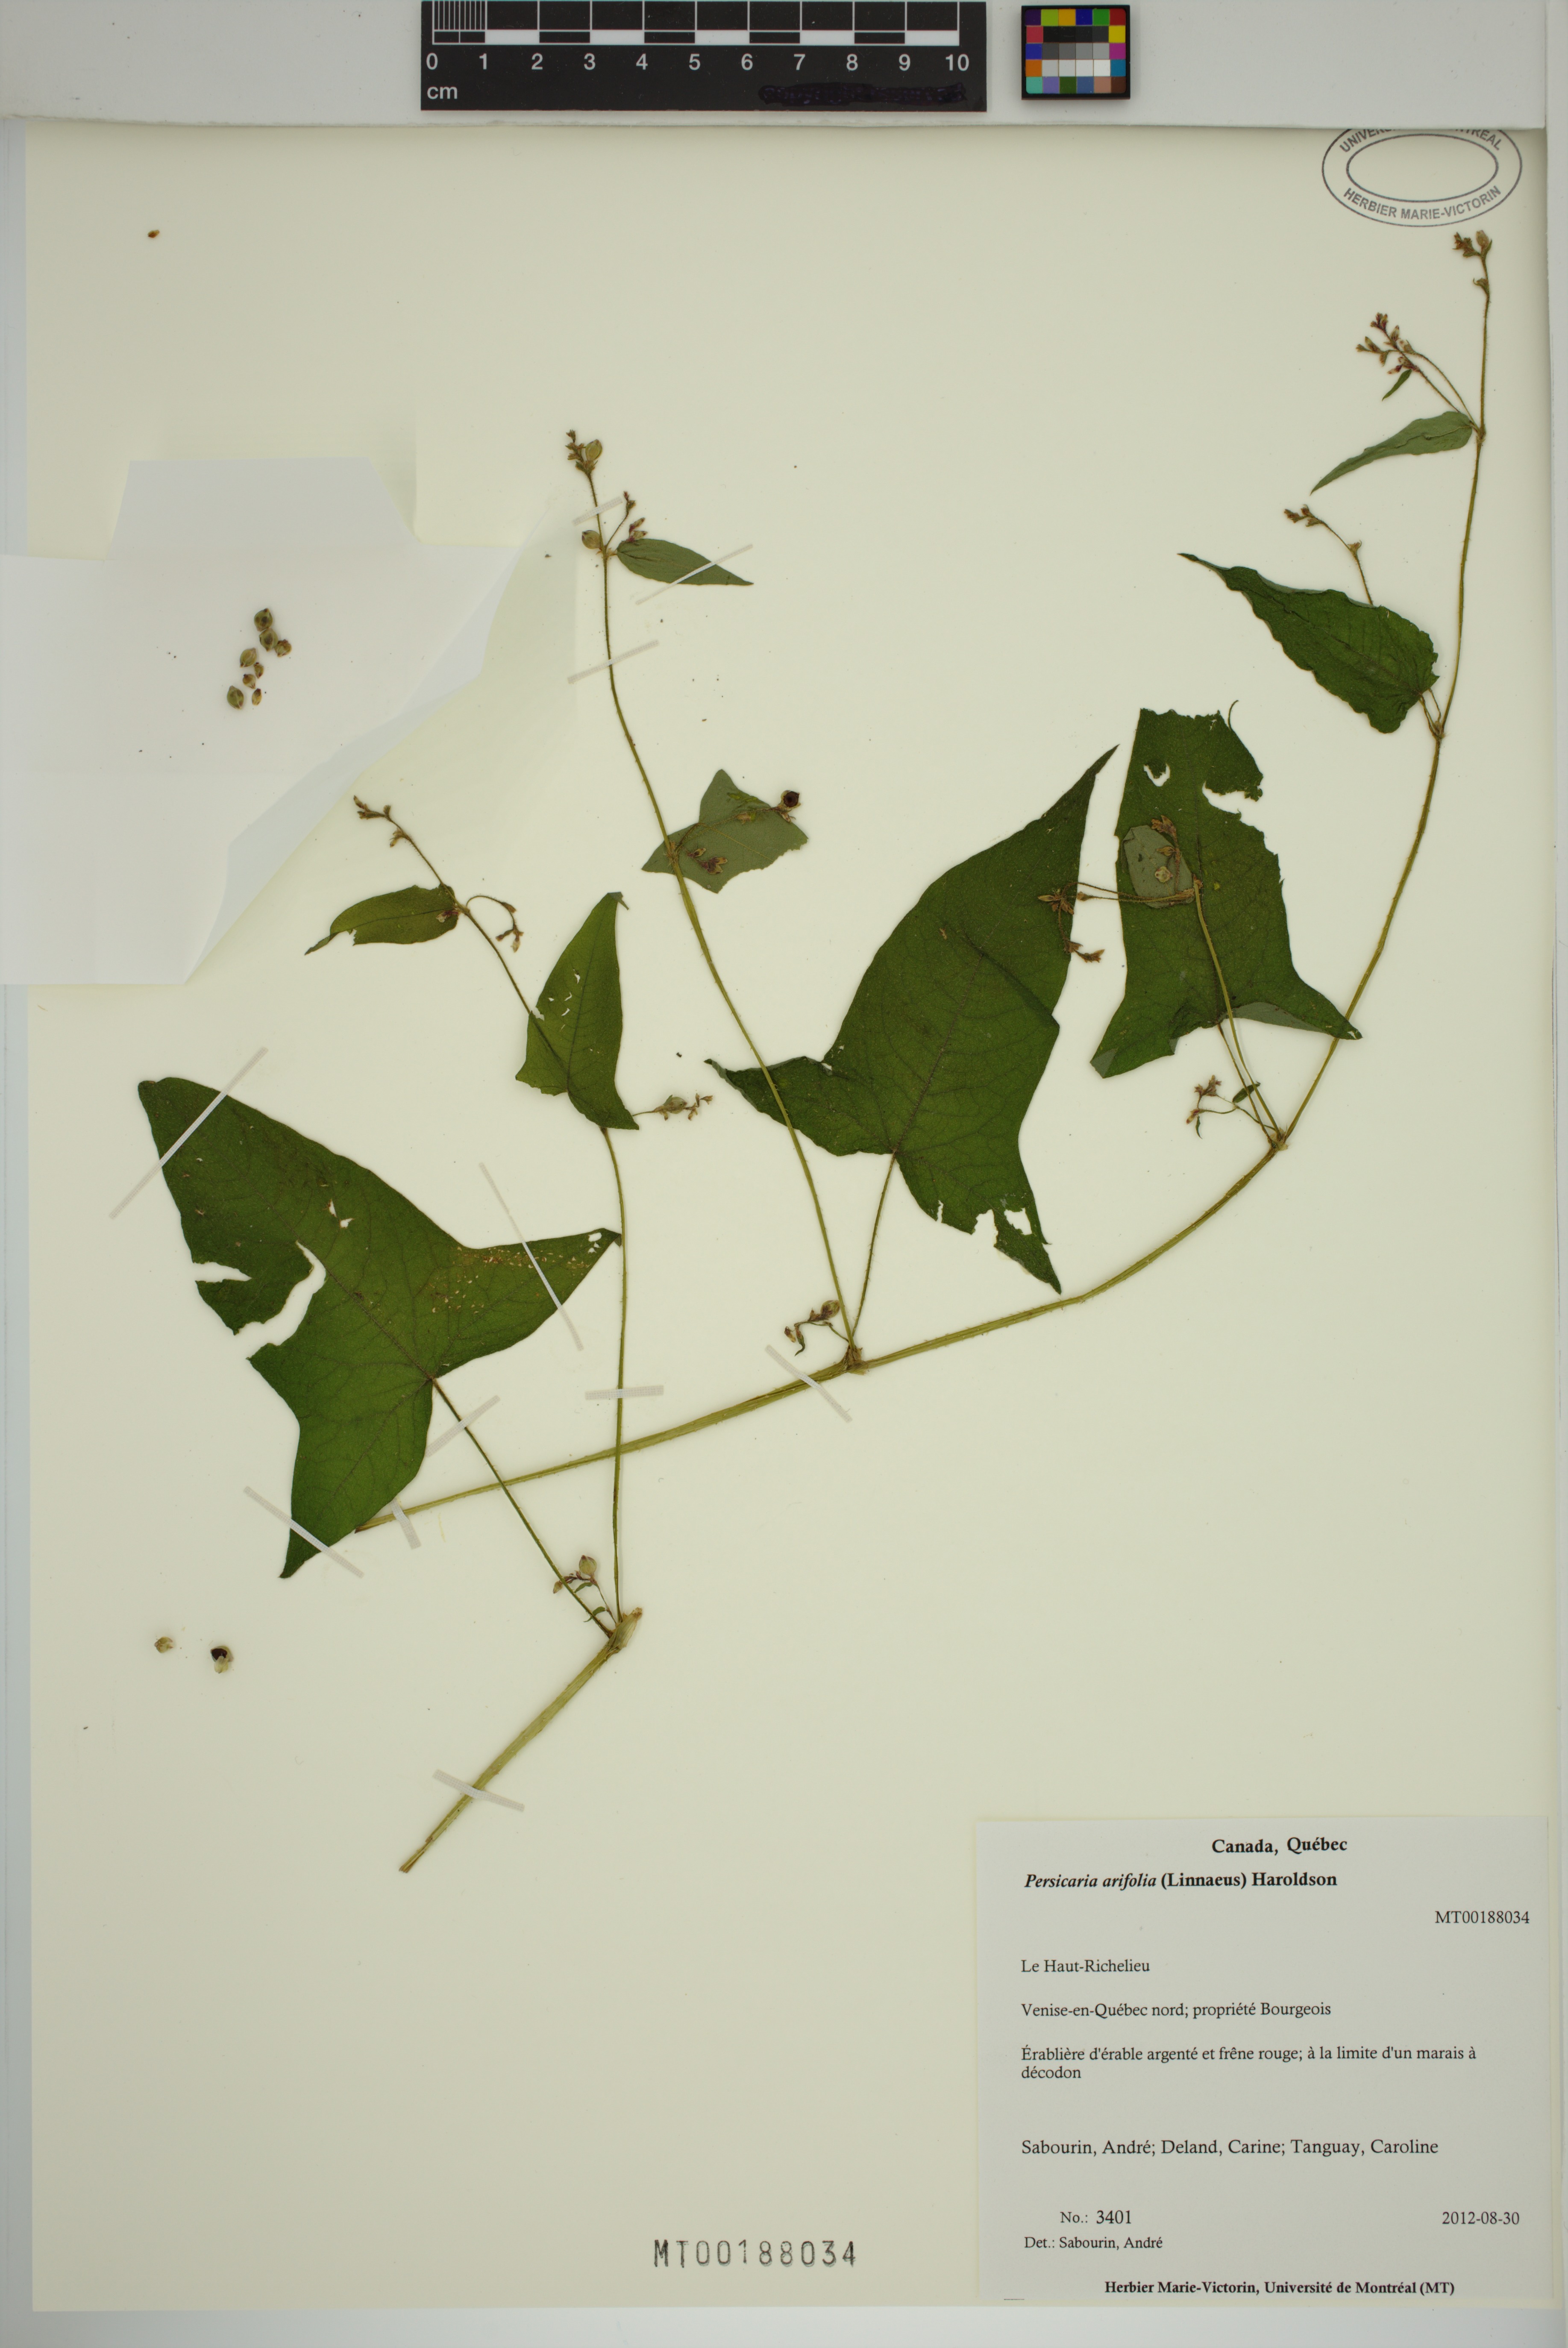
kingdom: Plantae
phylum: Tracheophyta
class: Magnoliopsida
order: Caryophyllales
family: Polygonaceae
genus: Persicaria
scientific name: Persicaria arifolia
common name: Halberd-leaved tear-thumb
